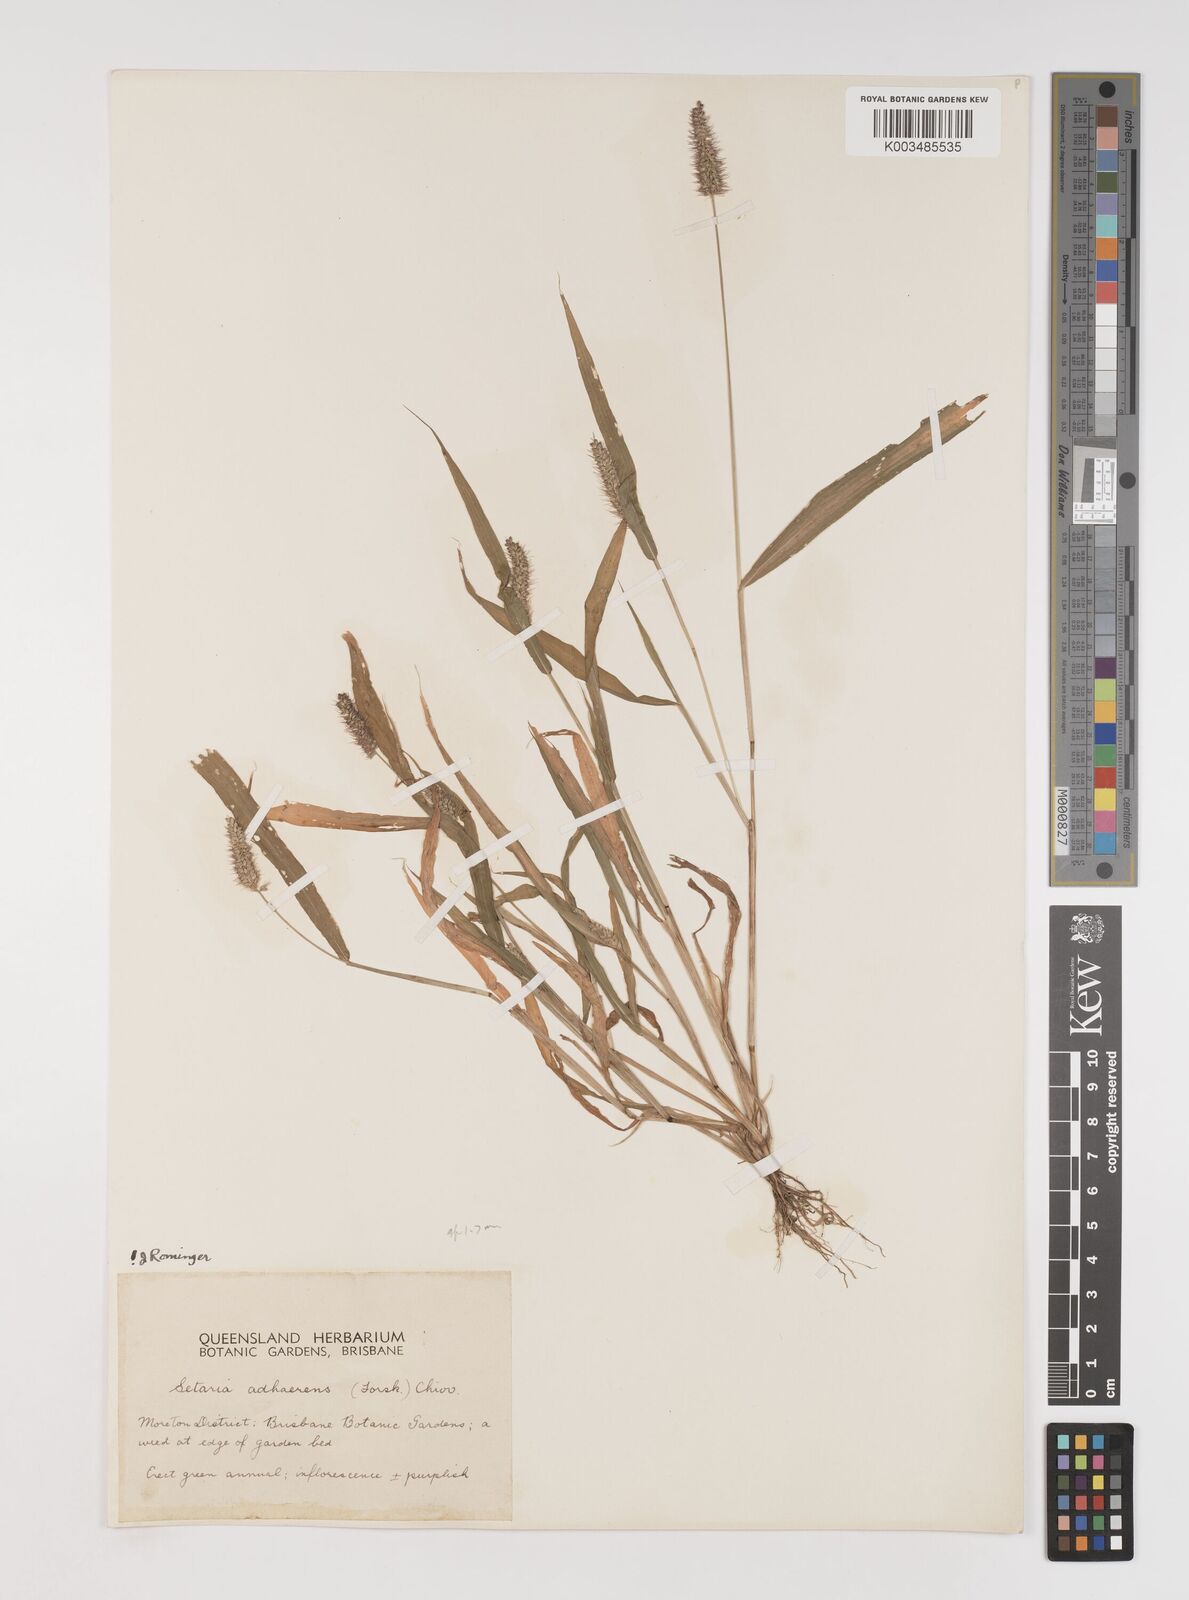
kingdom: Plantae
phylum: Tracheophyta
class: Liliopsida
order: Poales
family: Poaceae
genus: Setaria
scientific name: Setaria verticillata
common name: Hooked bristlegrass
